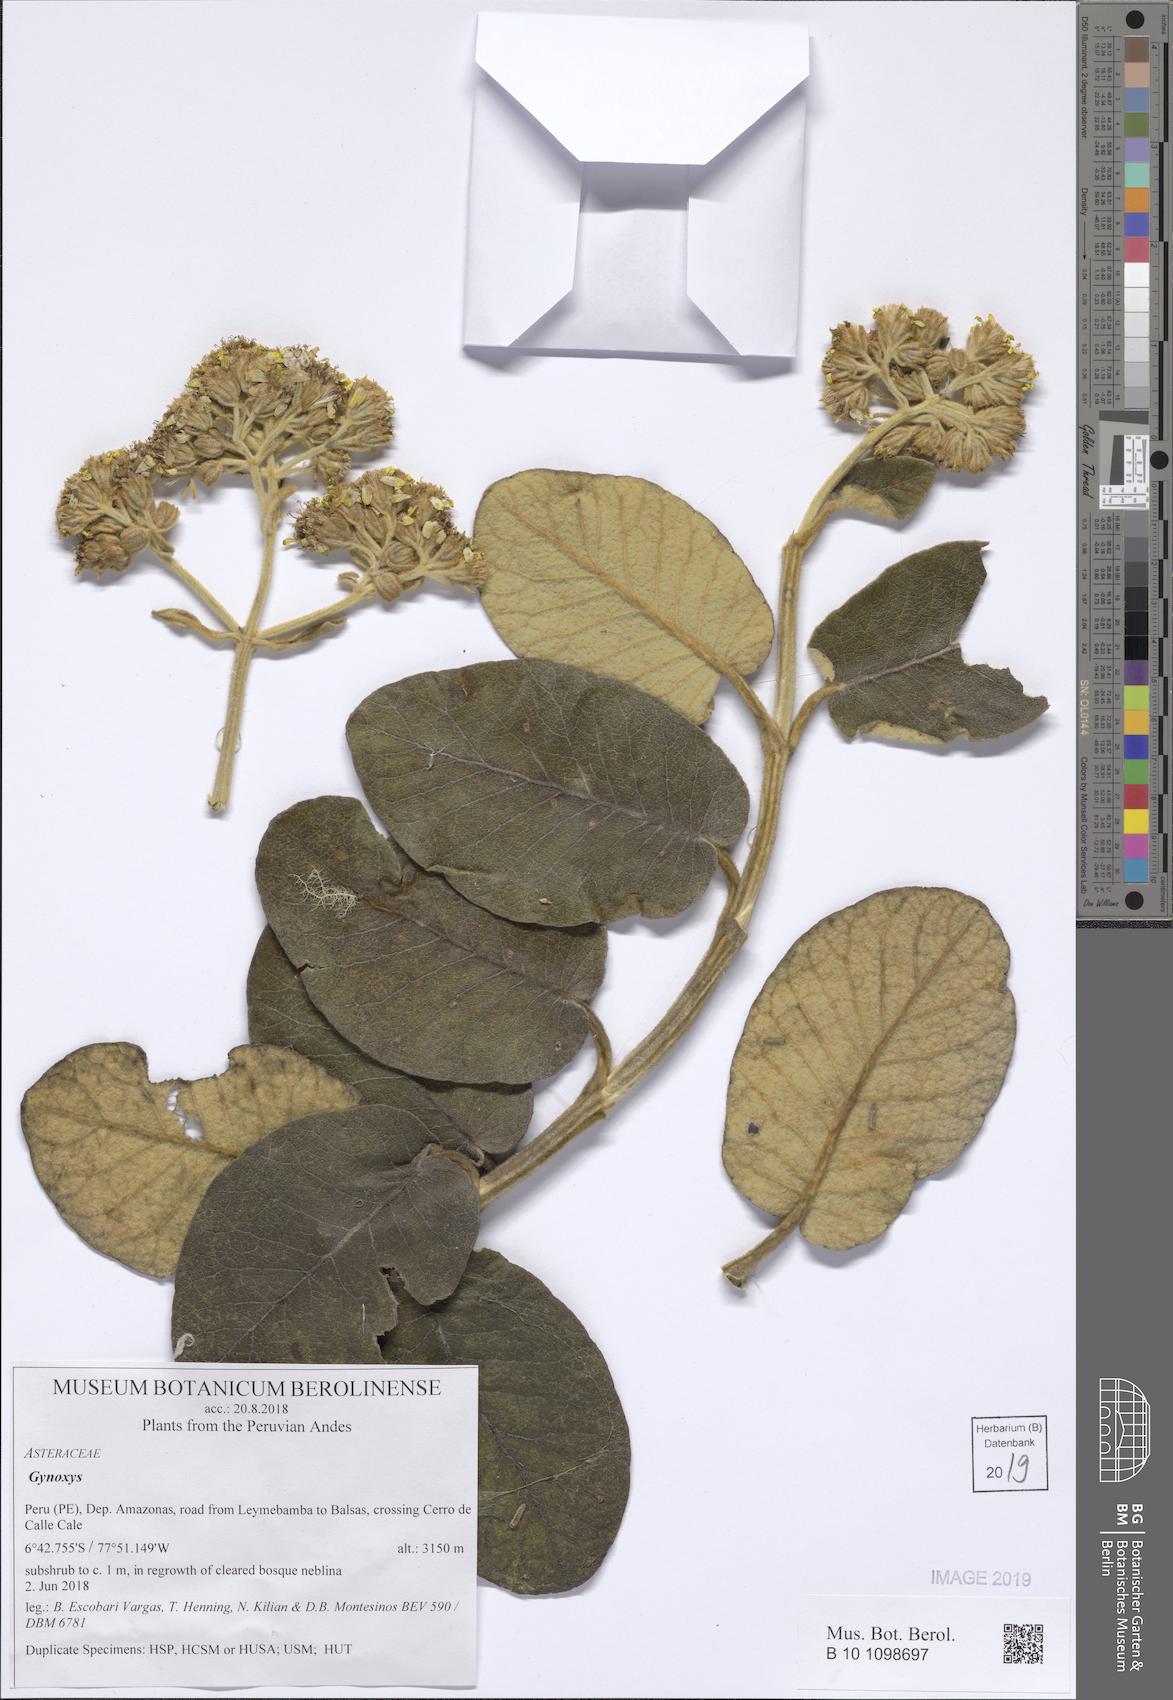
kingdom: Plantae
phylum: Tracheophyta
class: Magnoliopsida
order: Asterales
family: Asteraceae
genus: Gynoxys
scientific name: Gynoxys
